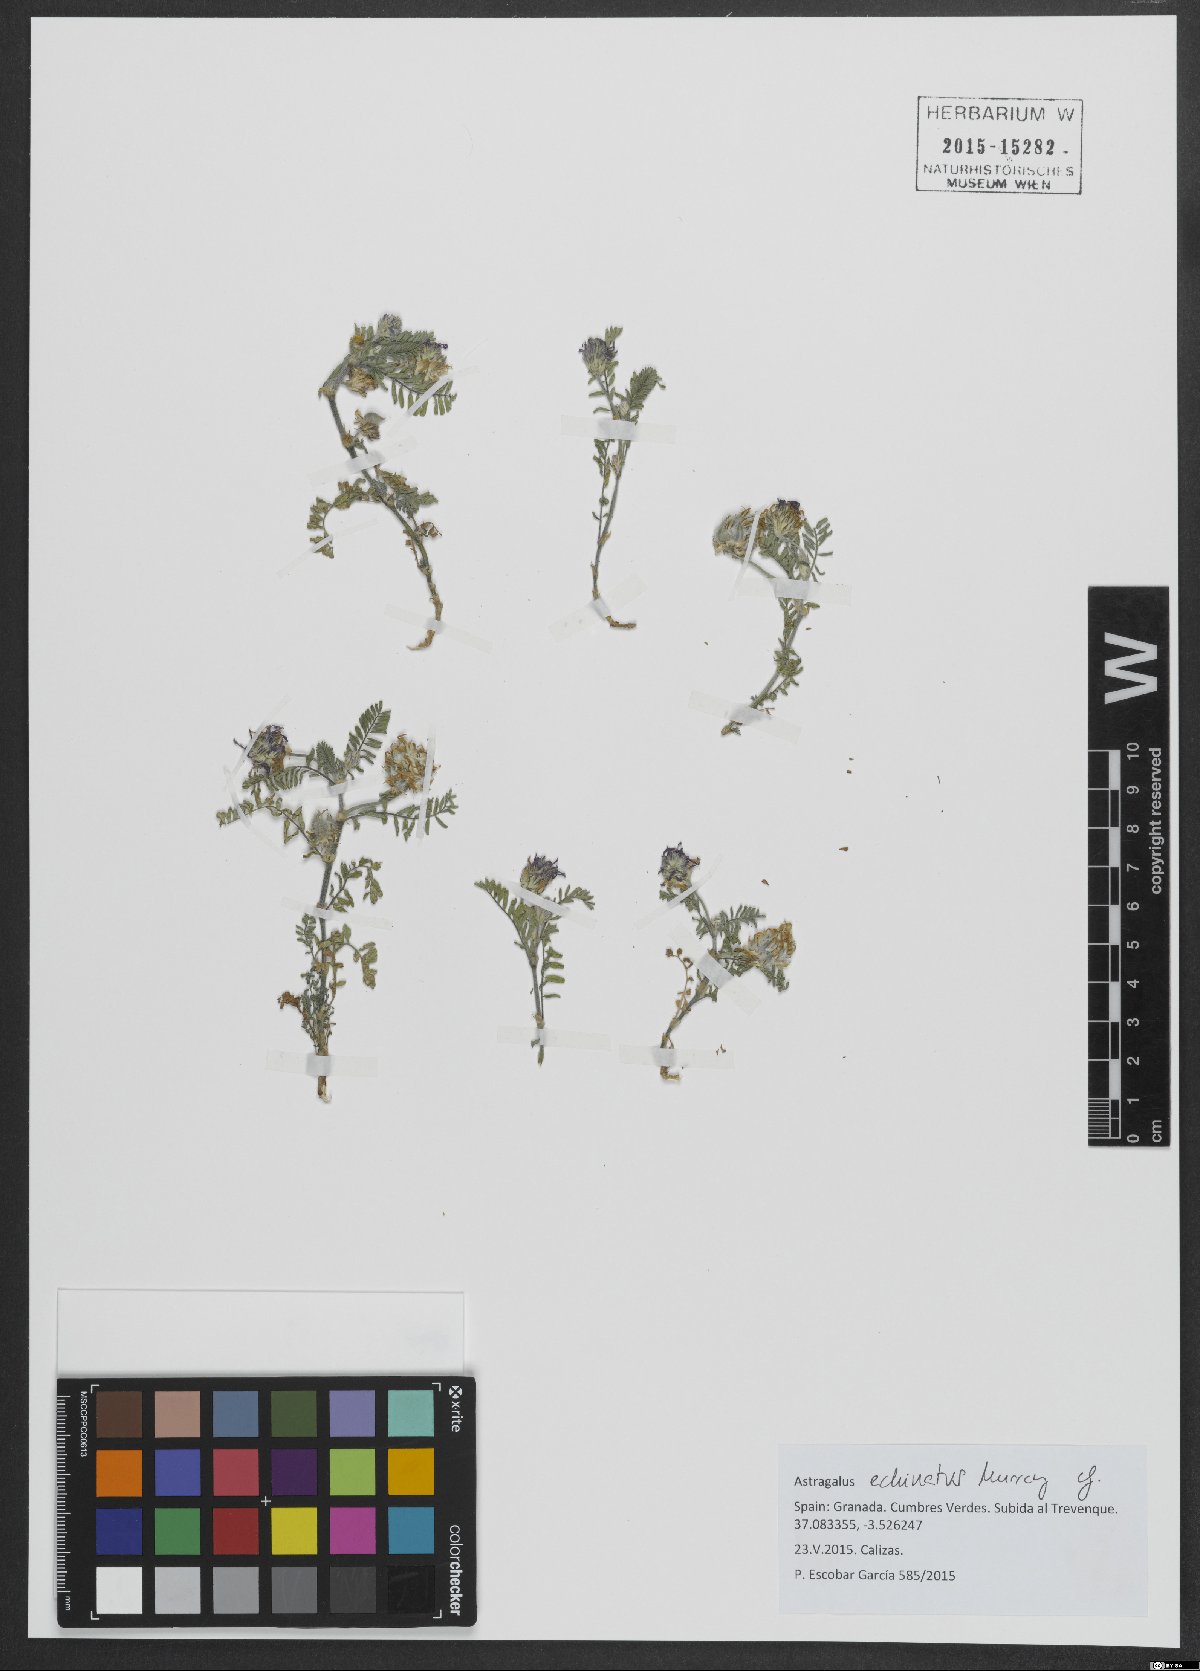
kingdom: Plantae
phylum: Tracheophyta
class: Magnoliopsida
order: Fabales
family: Fabaceae
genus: Astragalus
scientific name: Astragalus echinatus
